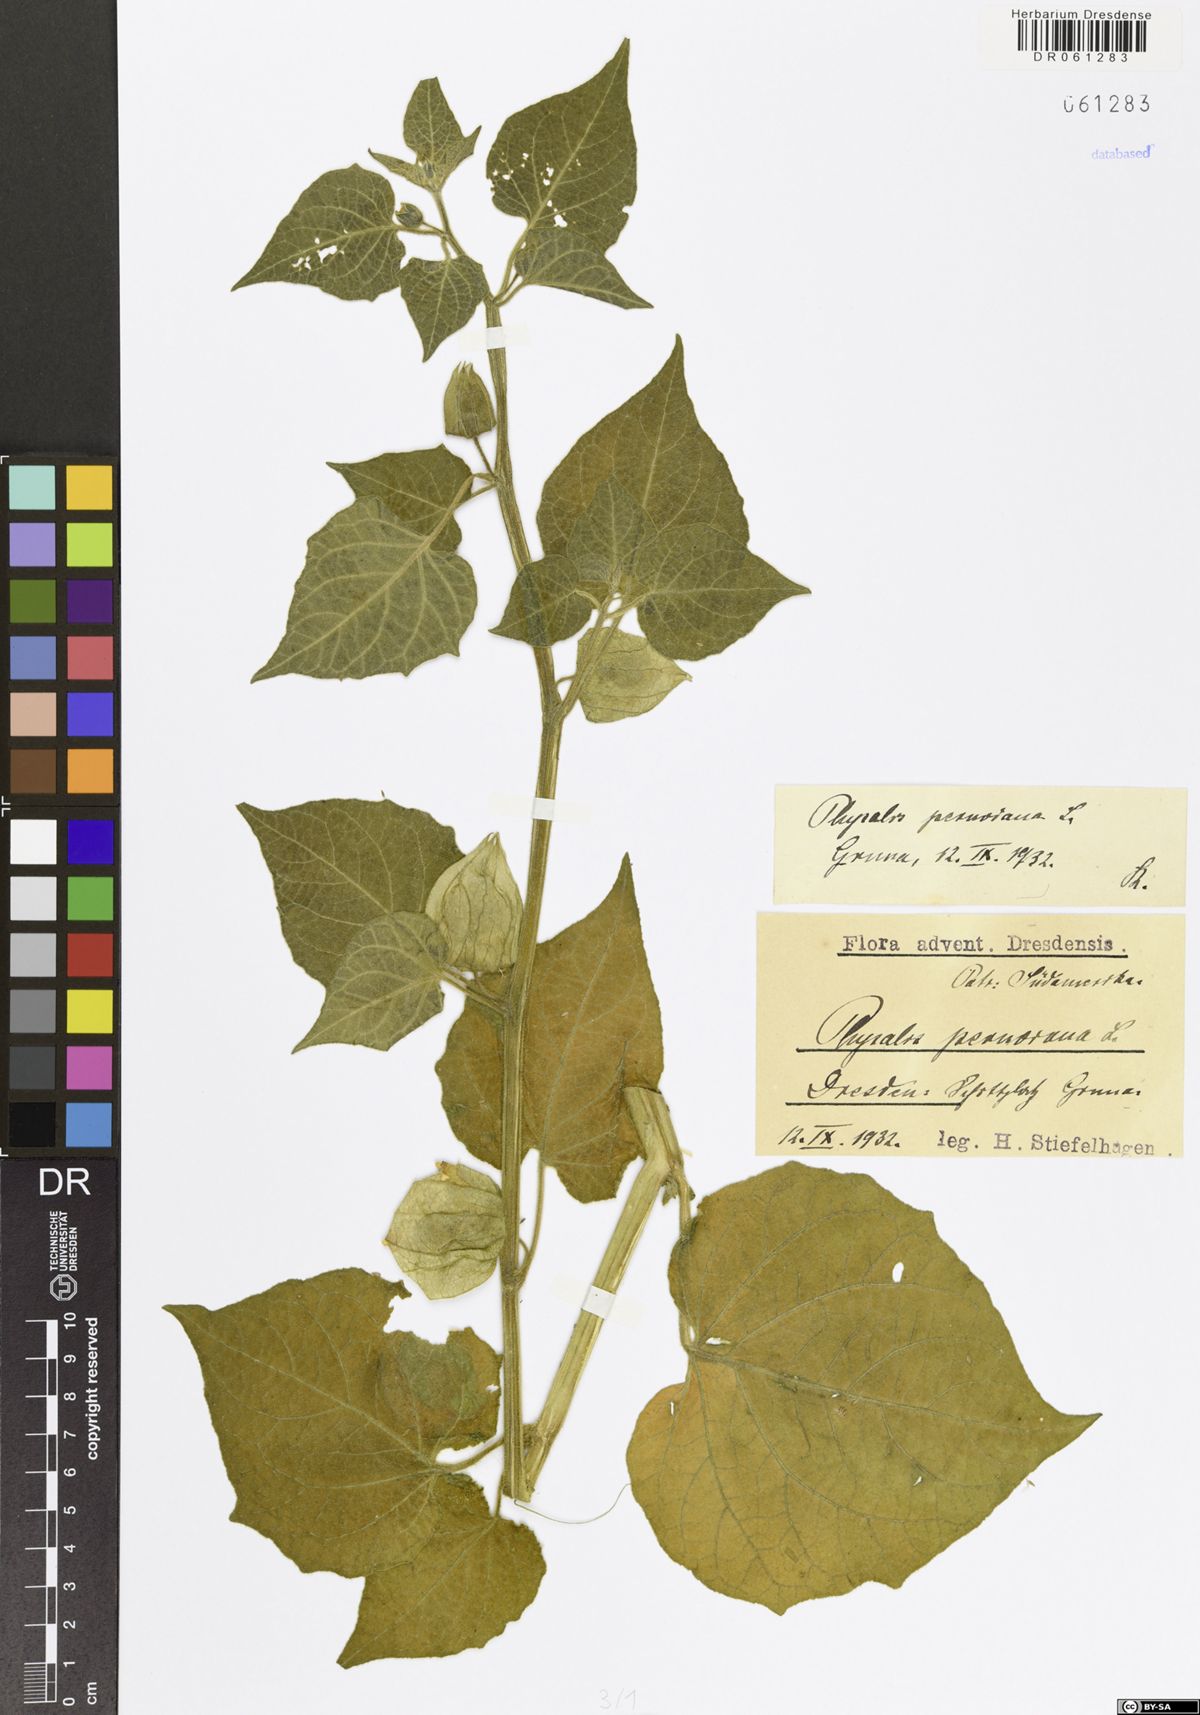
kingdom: Plantae
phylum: Tracheophyta
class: Magnoliopsida
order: Solanales
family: Solanaceae
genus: Physalis
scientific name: Physalis peruviana
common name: Cape-gooseberry
